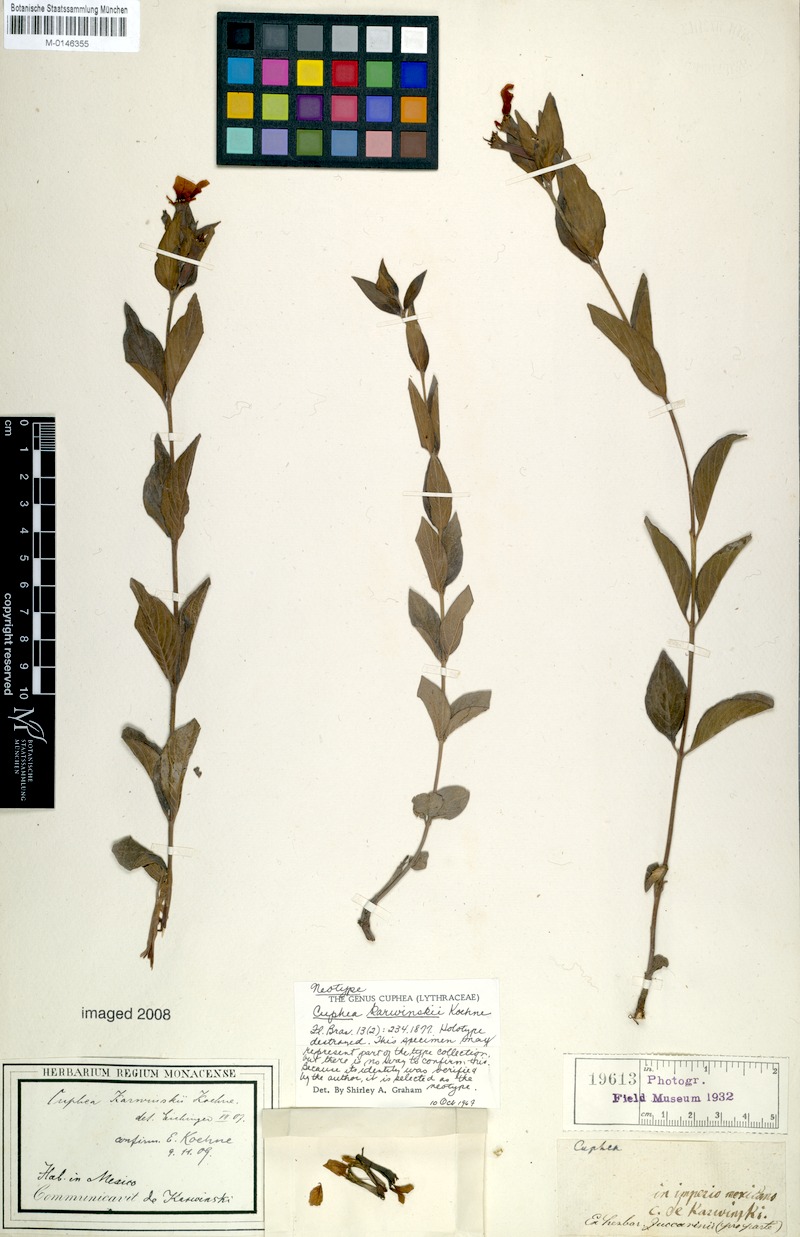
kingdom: Plantae
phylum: Tracheophyta
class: Magnoliopsida
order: Myrtales
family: Lythraceae
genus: Cuphea
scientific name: Cuphea karwinskii
